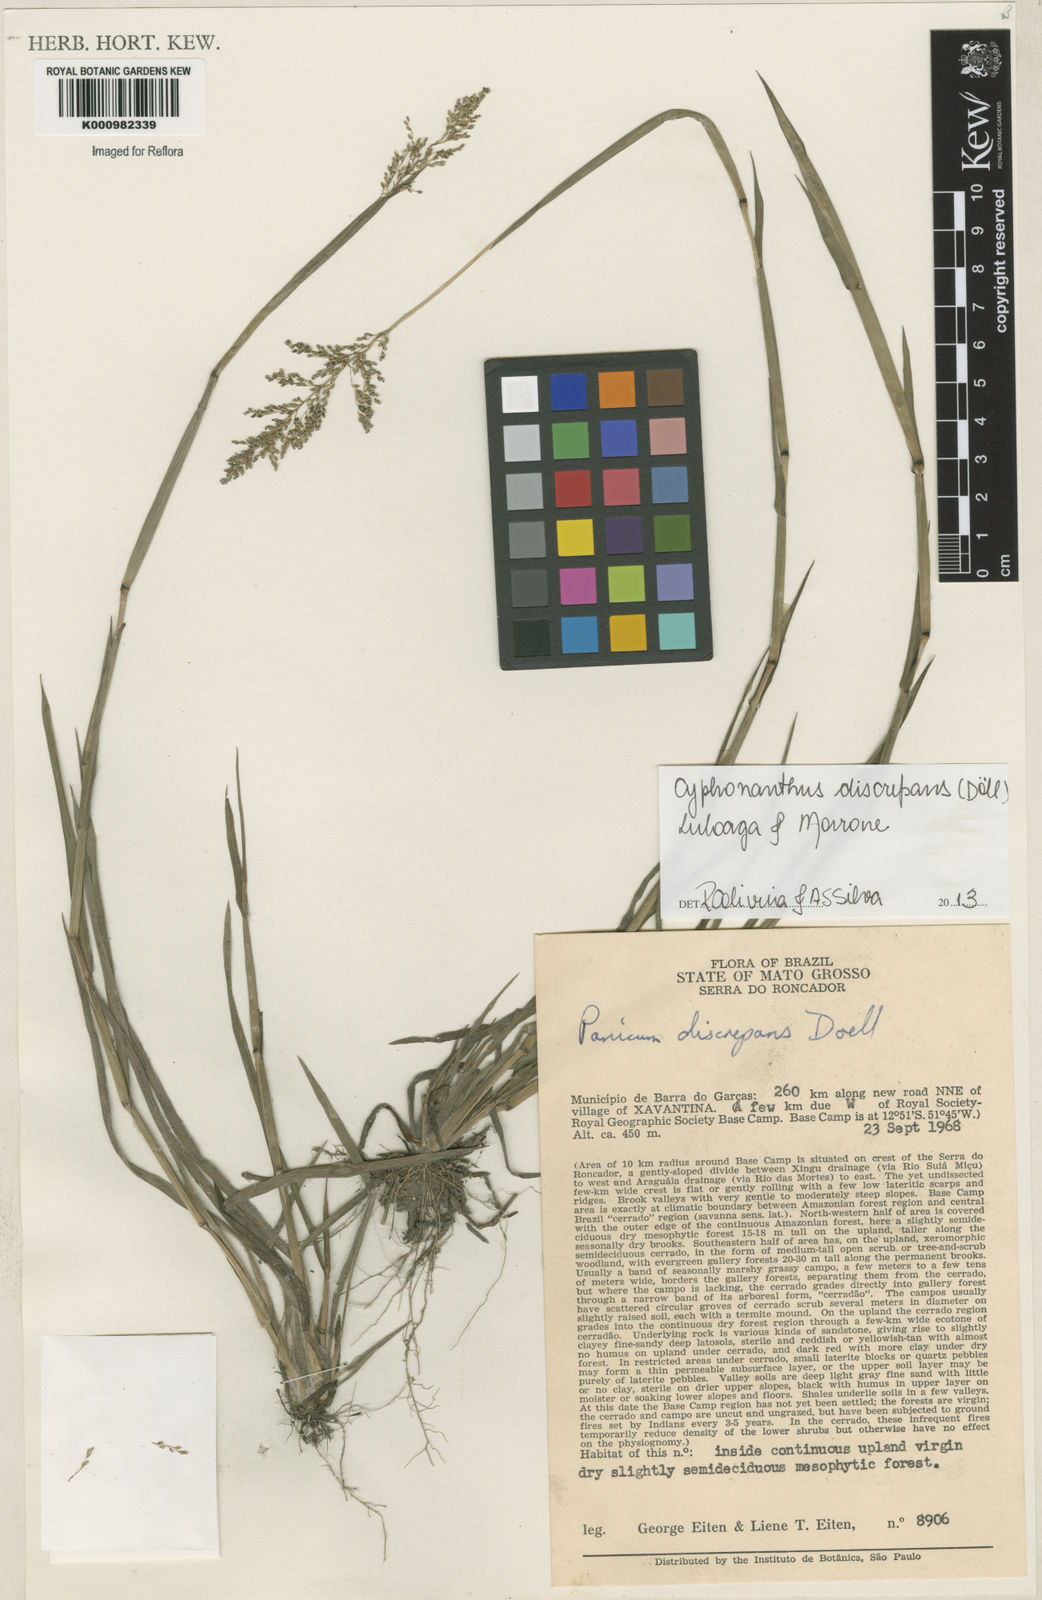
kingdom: Plantae
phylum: Tracheophyta
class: Liliopsida
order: Poales
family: Poaceae
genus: Panicum
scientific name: Panicum
